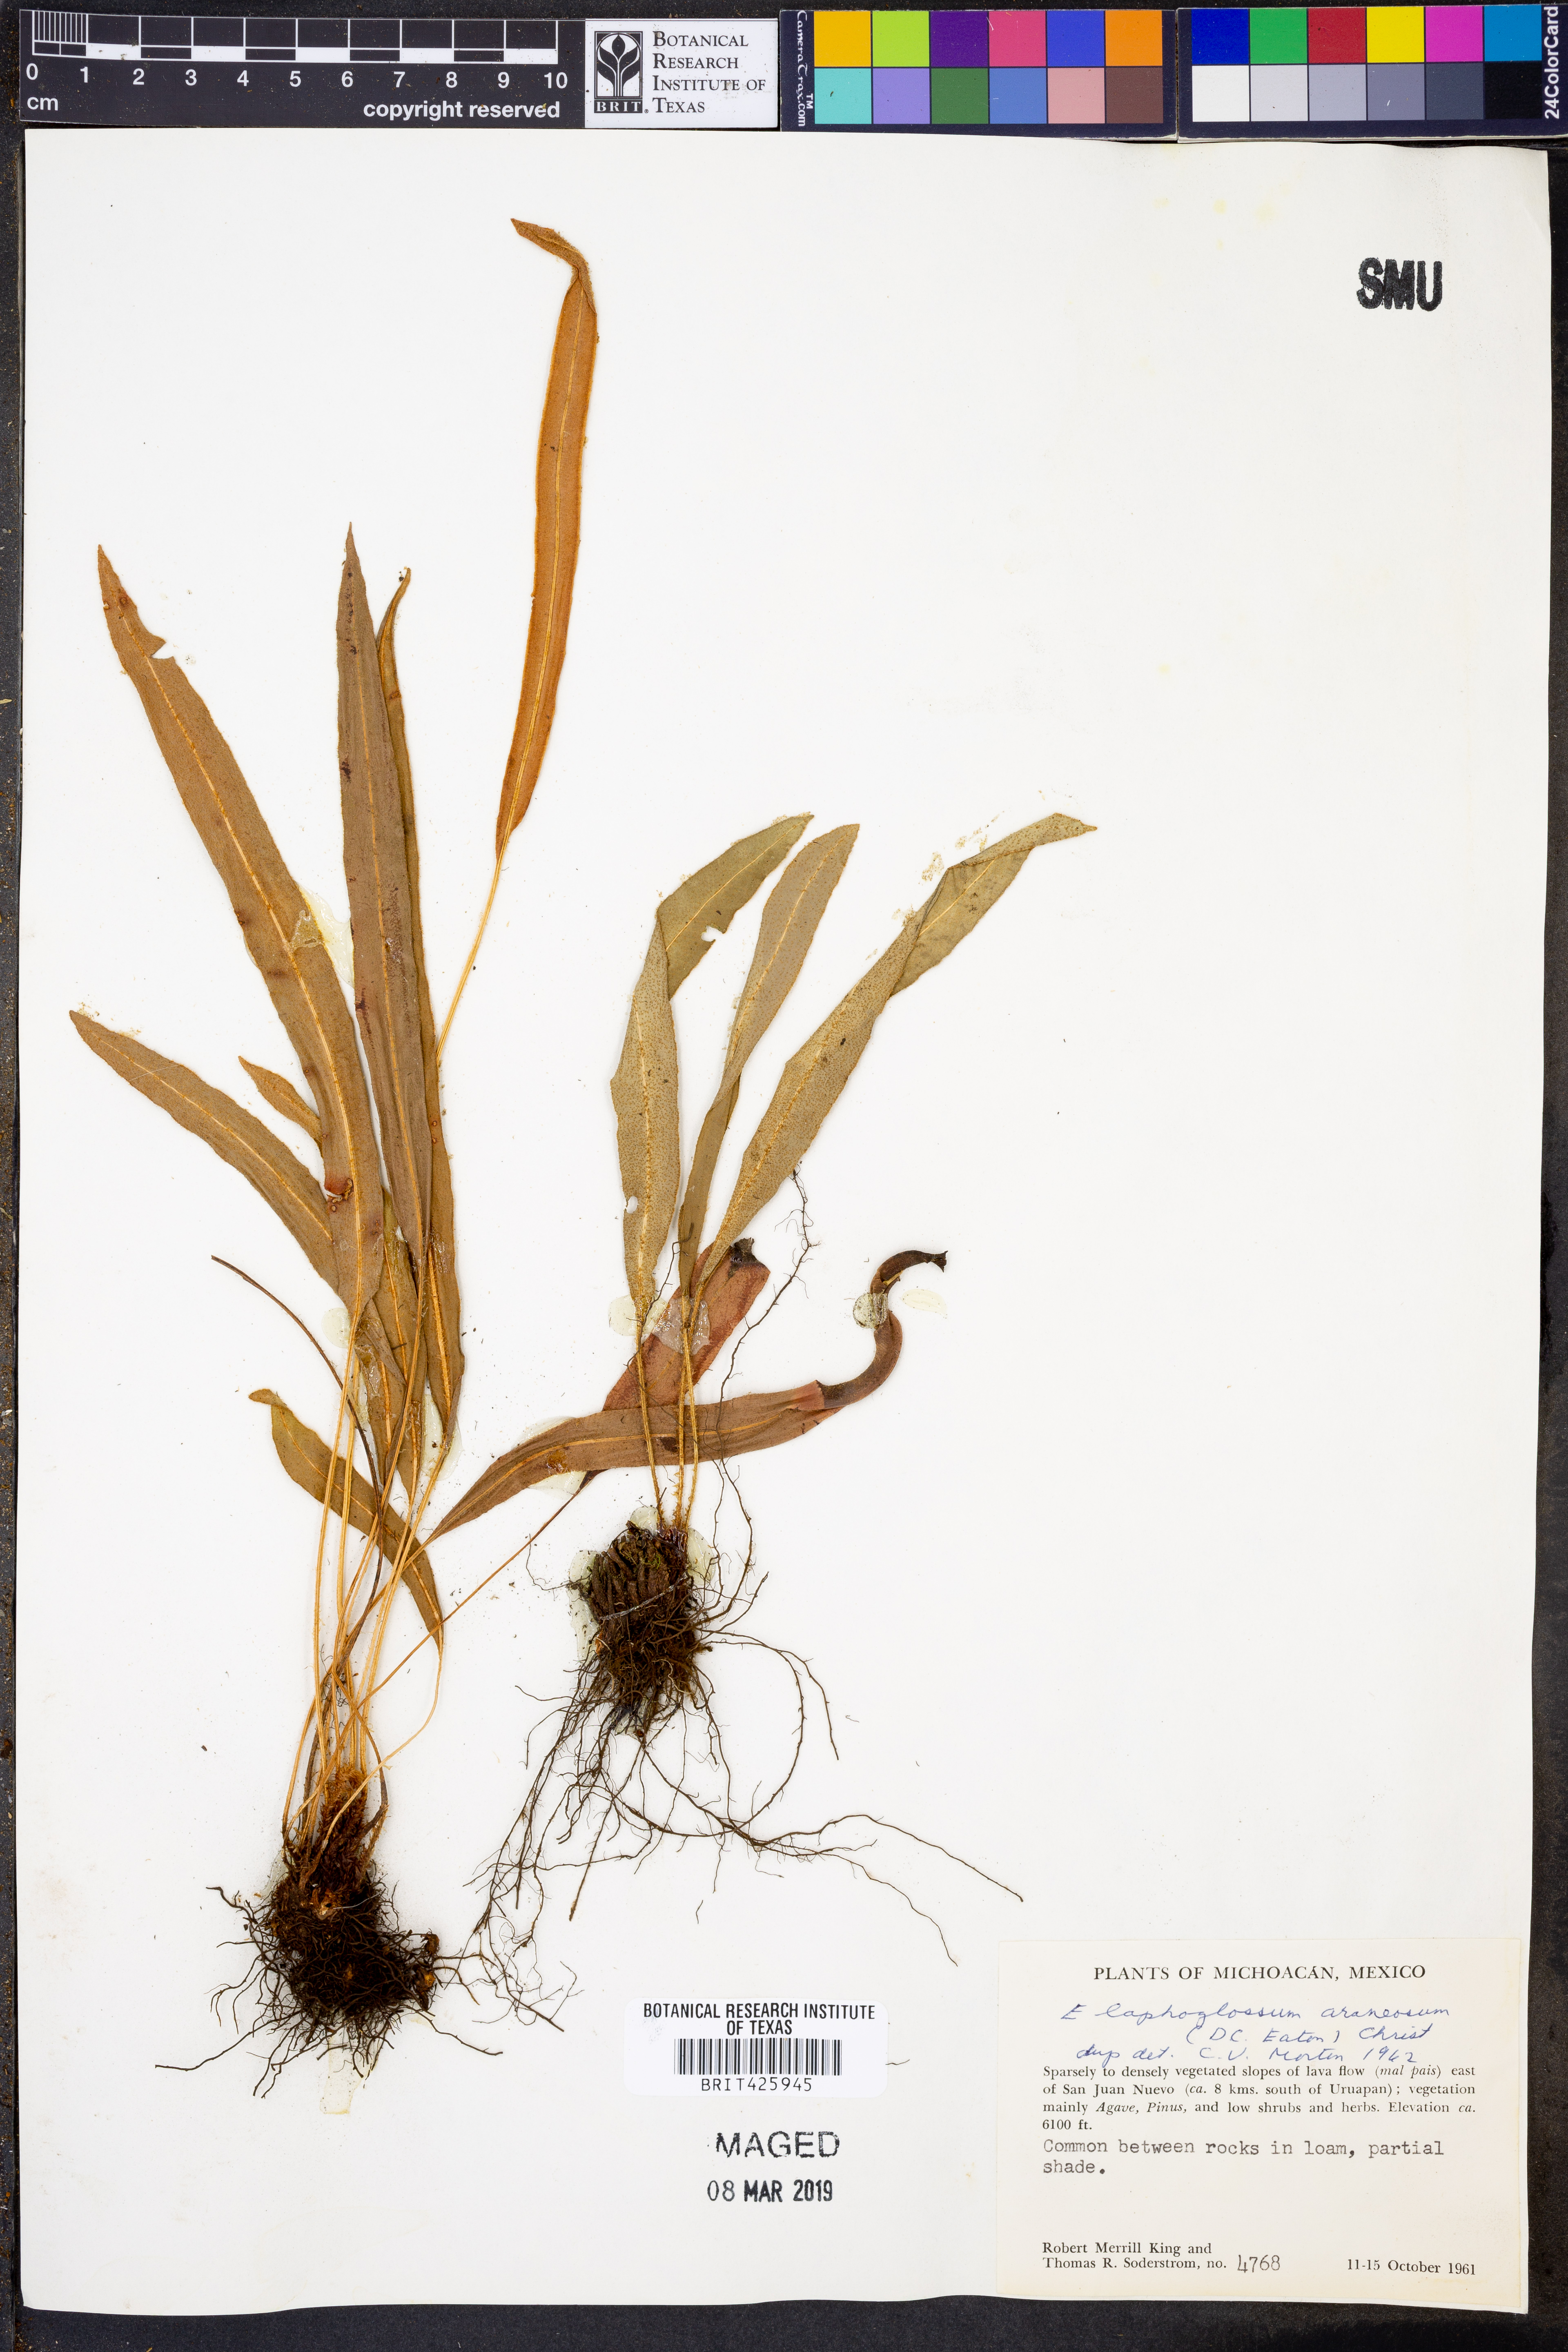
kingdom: Plantae
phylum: Tracheophyta
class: Polypodiopsida
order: Polypodiales
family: Dryopteridaceae
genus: Elaphoglossum
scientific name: Elaphoglossum muelleri
